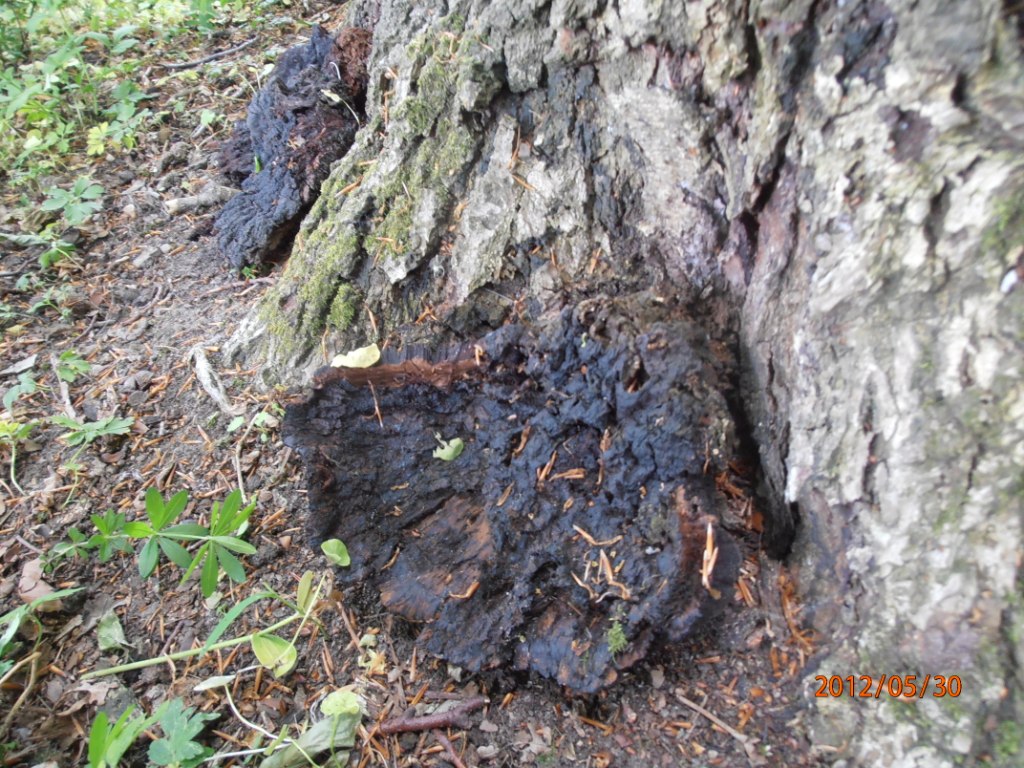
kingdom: Fungi
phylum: Basidiomycota
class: Agaricomycetes
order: Hymenochaetales
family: Hymenochaetaceae
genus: Pseudoinonotus
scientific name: Pseudoinonotus dryadeus
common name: ege-spejlporesvamp
